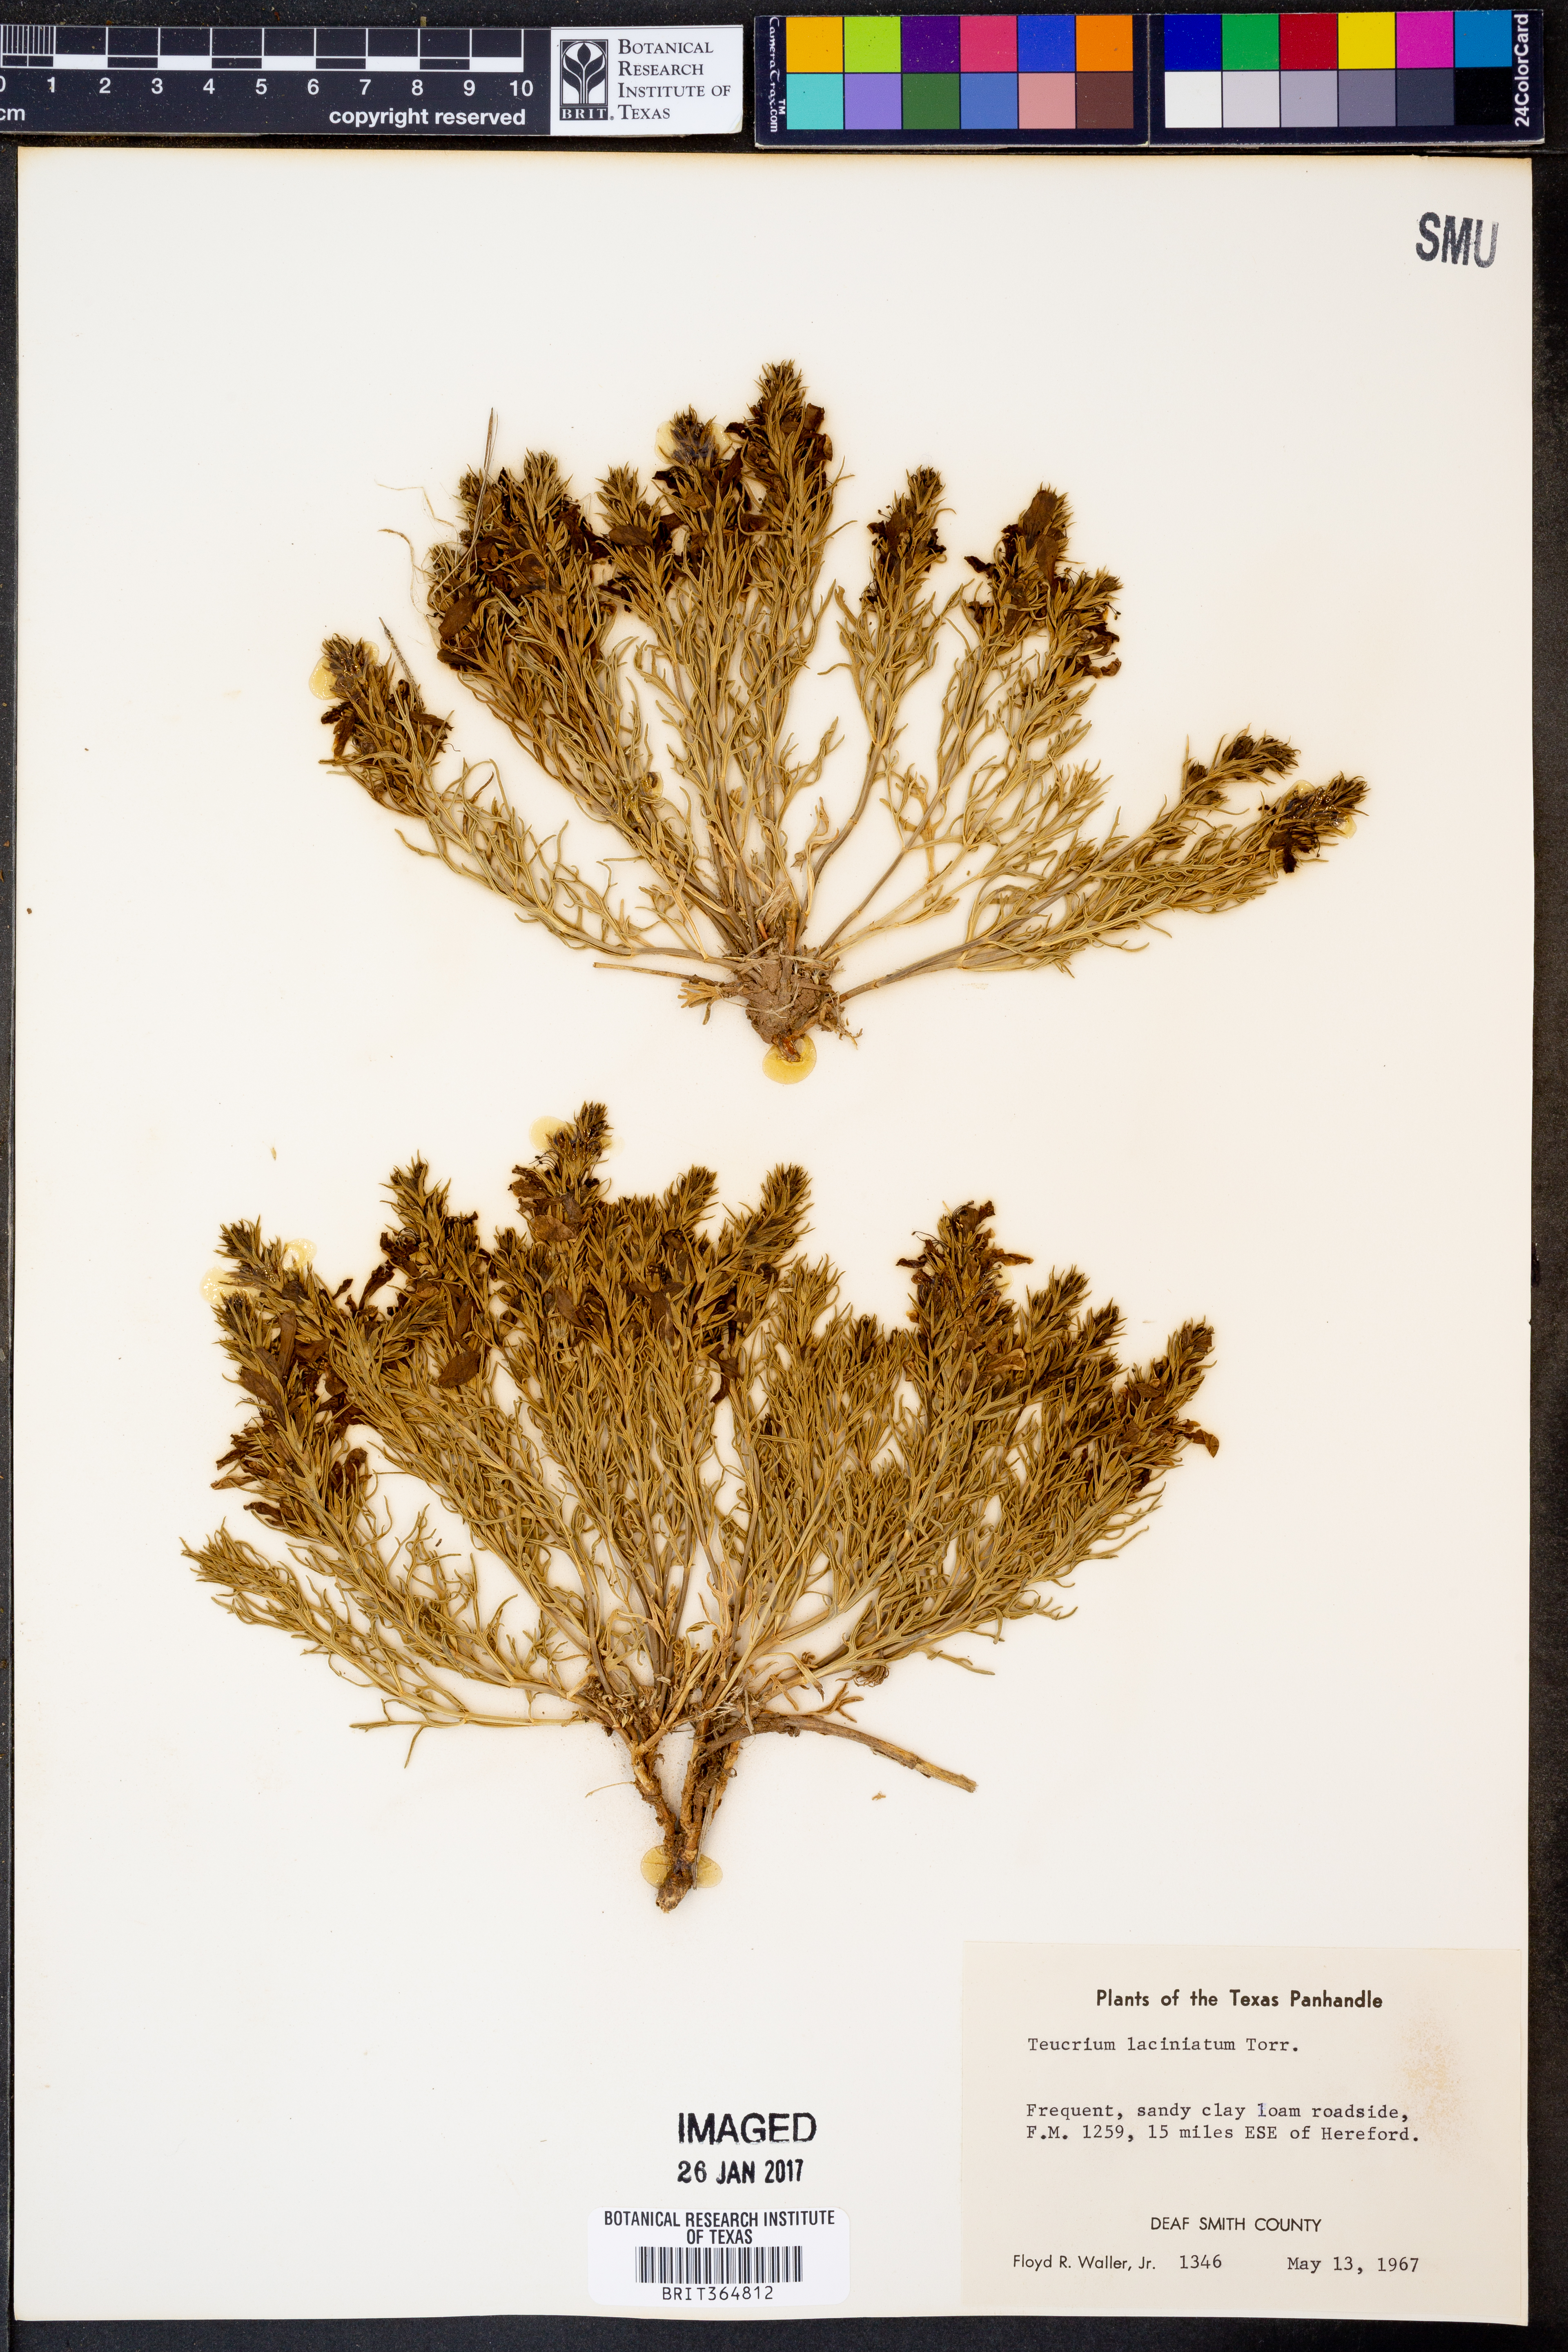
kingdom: Plantae
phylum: Tracheophyta
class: Magnoliopsida
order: Lamiales
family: Lamiaceae
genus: Teucrium
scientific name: Teucrium laciniatum
